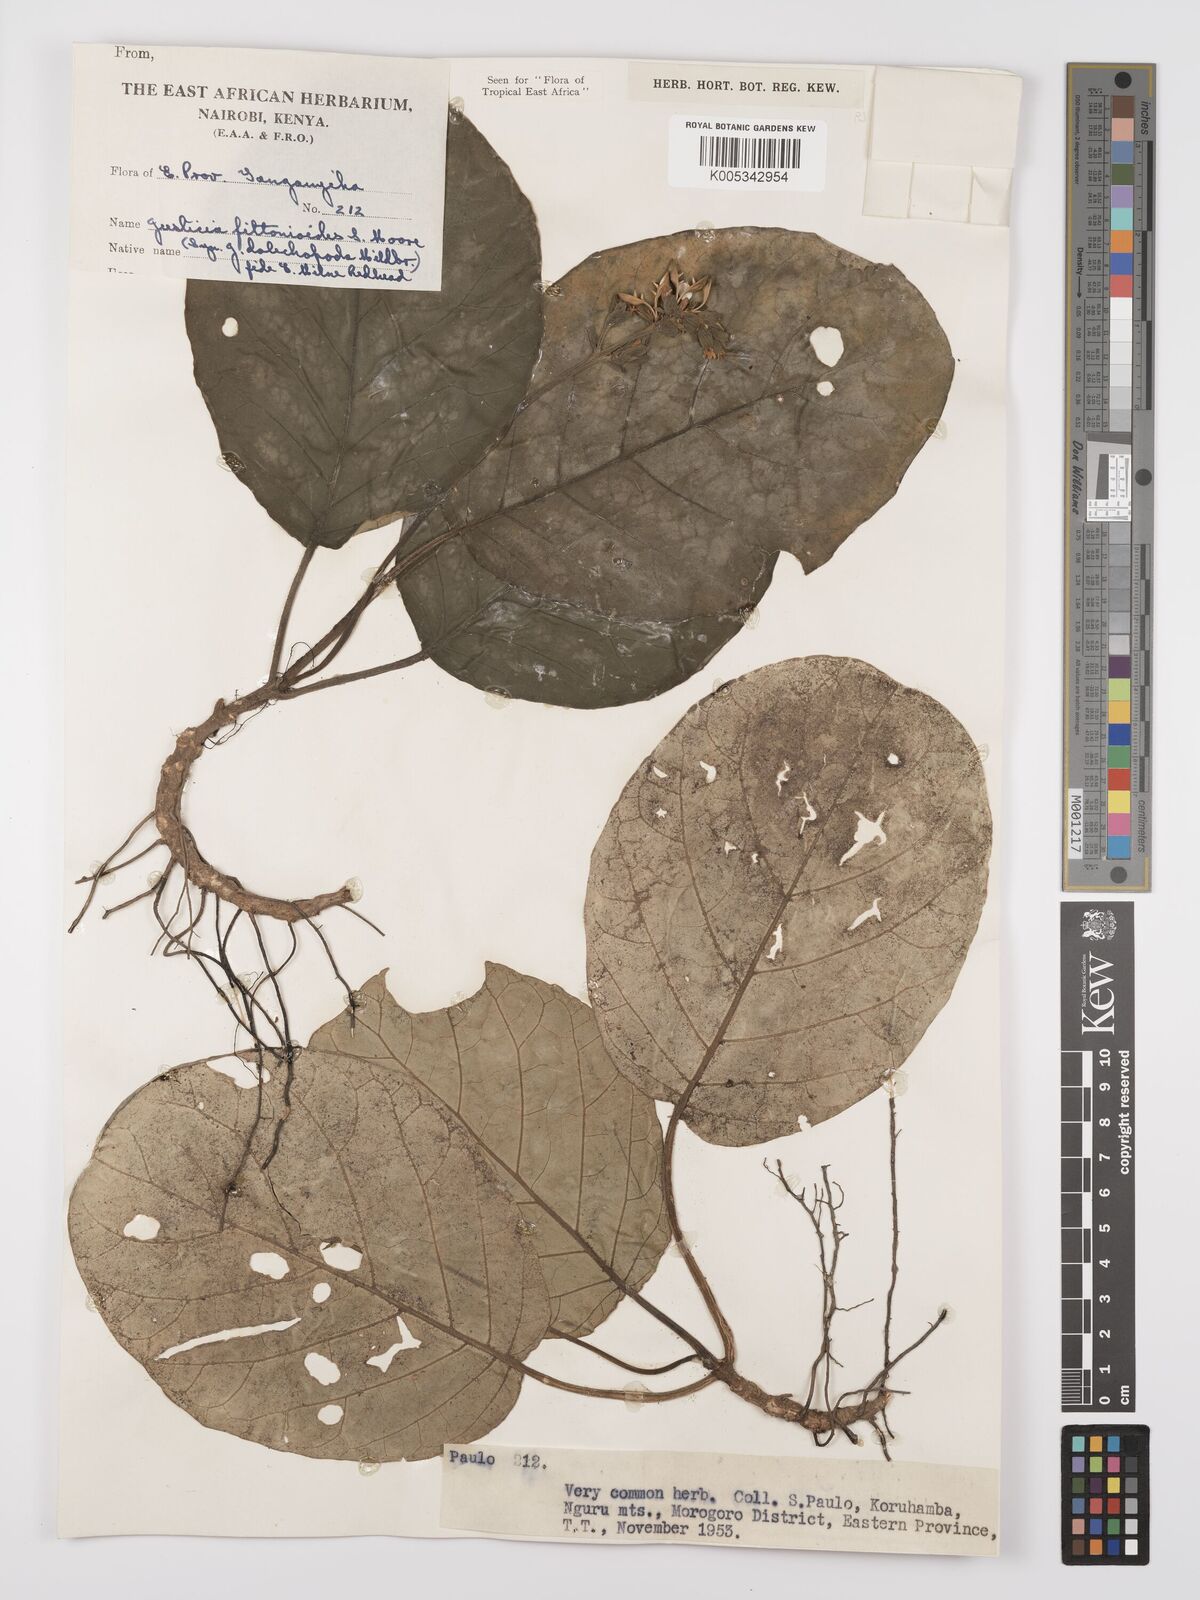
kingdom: Plantae
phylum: Tracheophyta
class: Magnoliopsida
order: Lamiales
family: Acanthaceae
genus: Justicia
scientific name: Justicia
